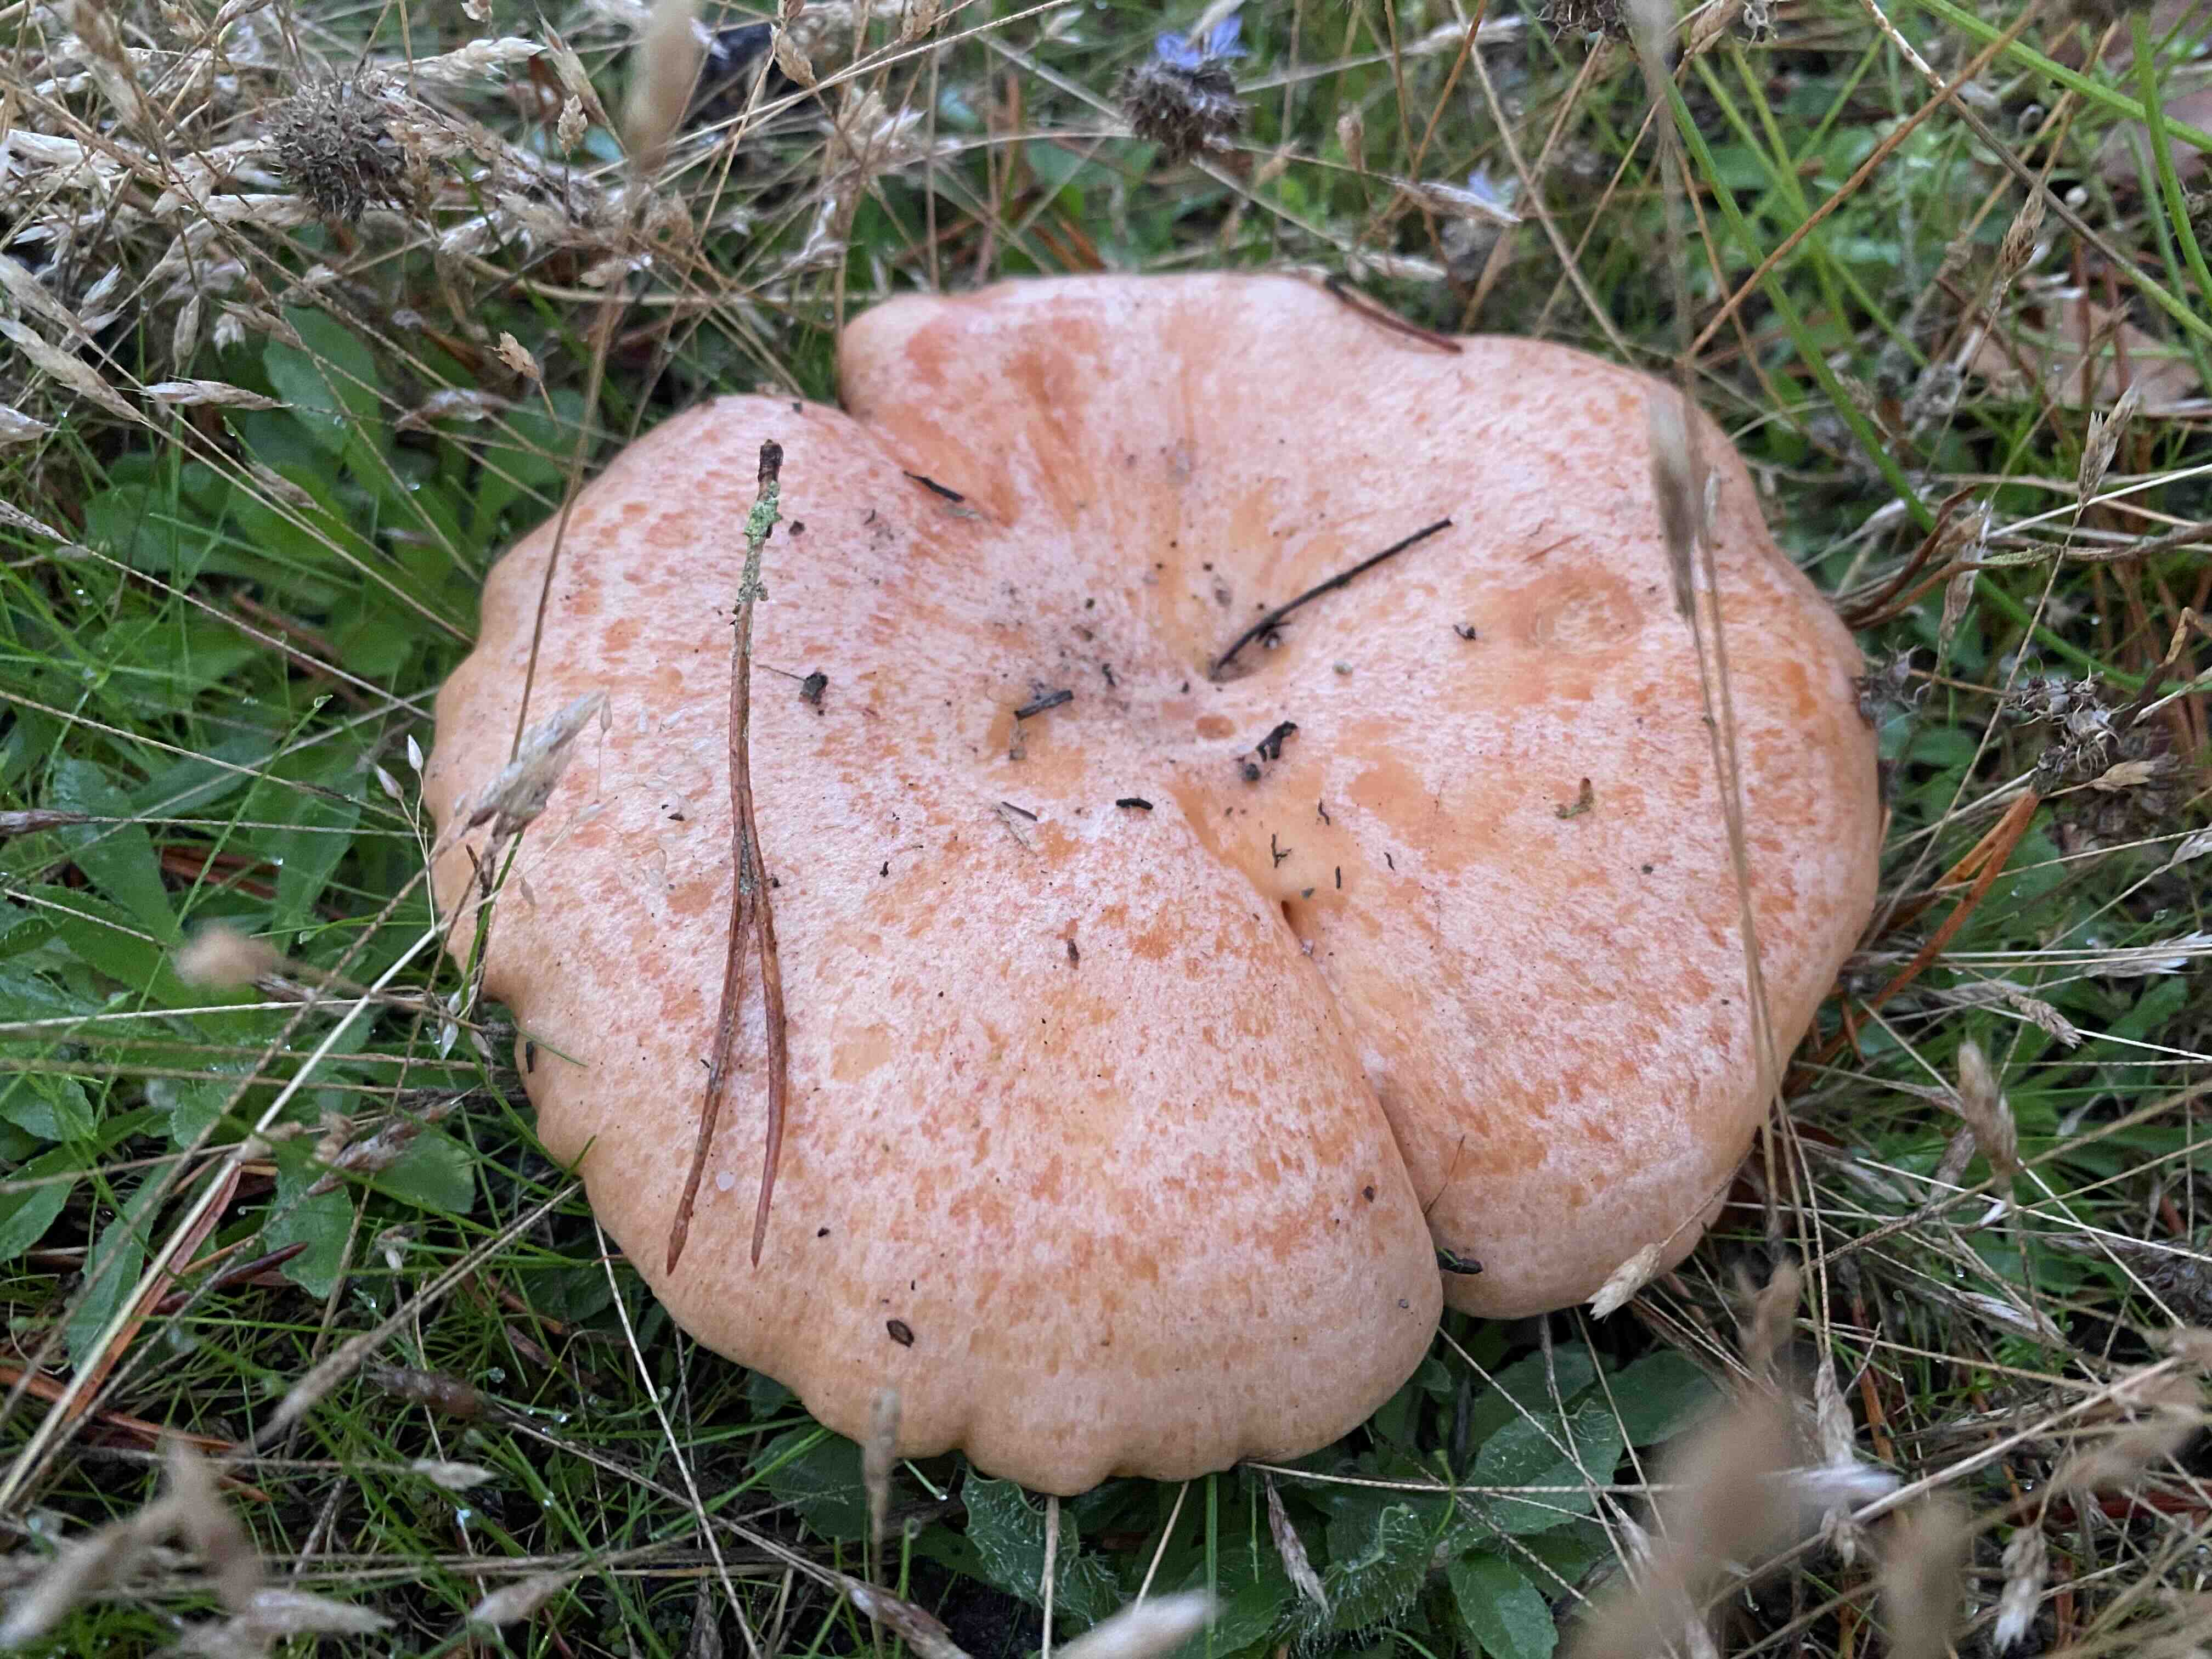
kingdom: Fungi
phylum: Basidiomycota
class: Agaricomycetes
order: Russulales
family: Russulaceae
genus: Lactarius
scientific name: Lactarius deliciosus
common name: velsmagende mælkehat
